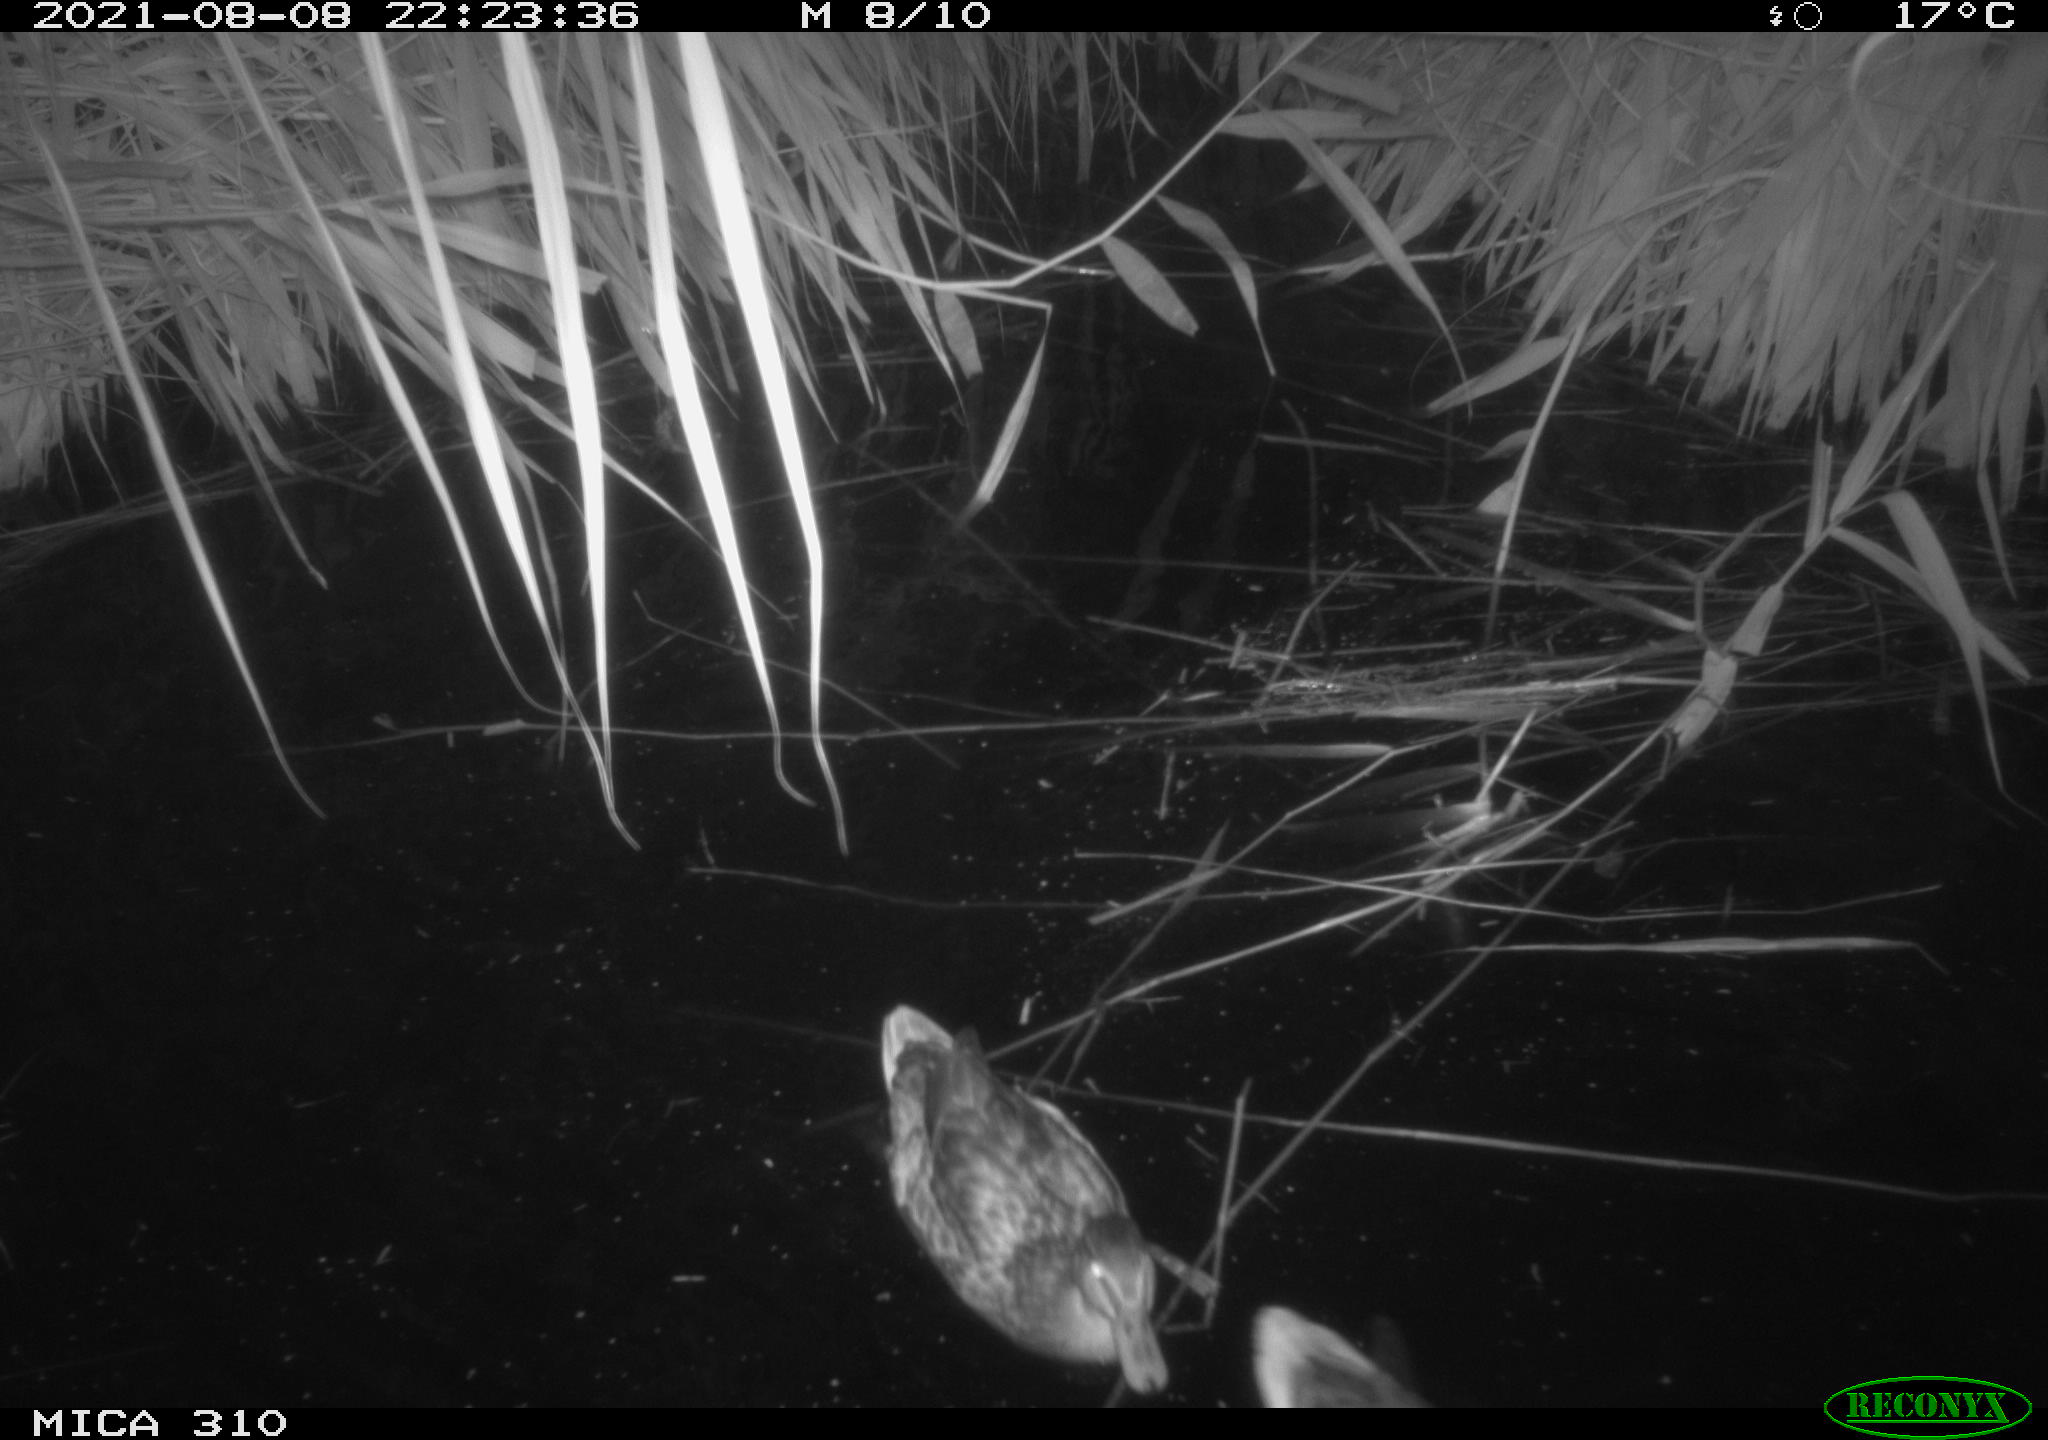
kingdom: Animalia
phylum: Chordata
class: Aves
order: Anseriformes
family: Anatidae
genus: Anas
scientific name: Anas platyrhynchos
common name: Mallard
